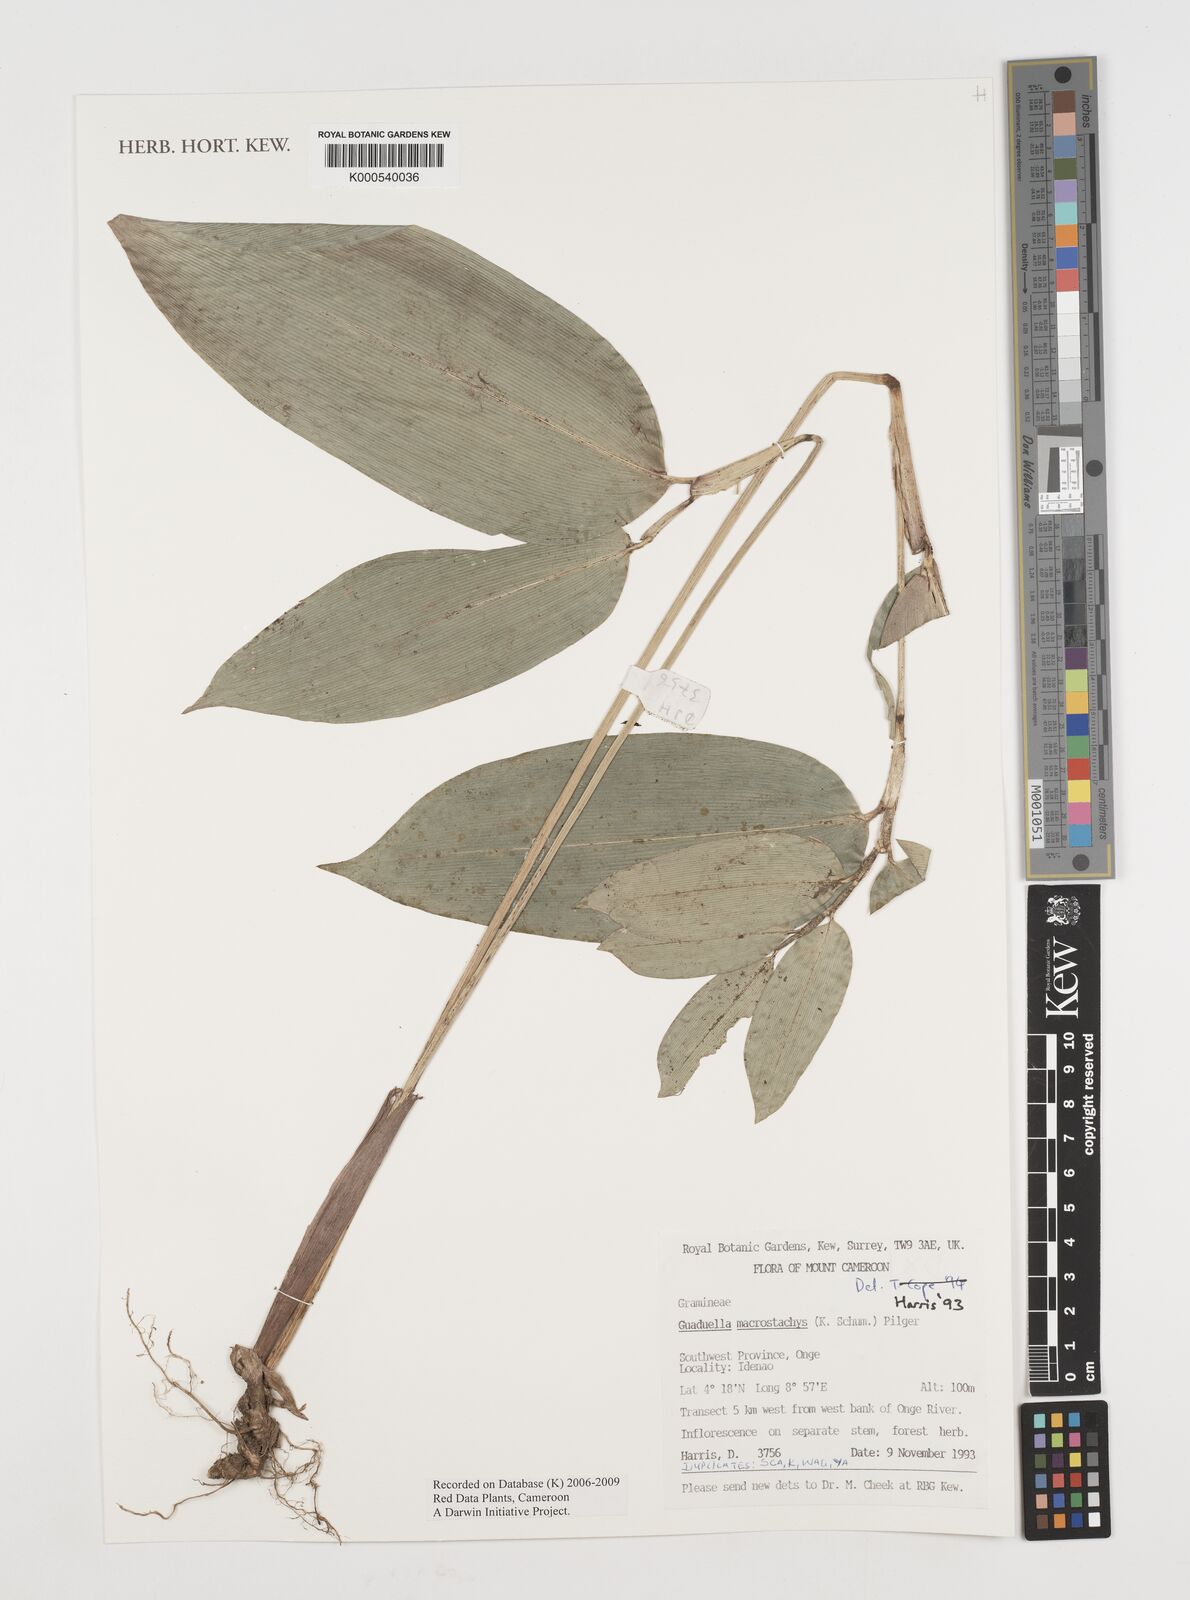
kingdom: Plantae
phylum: Tracheophyta
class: Liliopsida
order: Poales
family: Poaceae
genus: Guaduella
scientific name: Guaduella macrostachys
